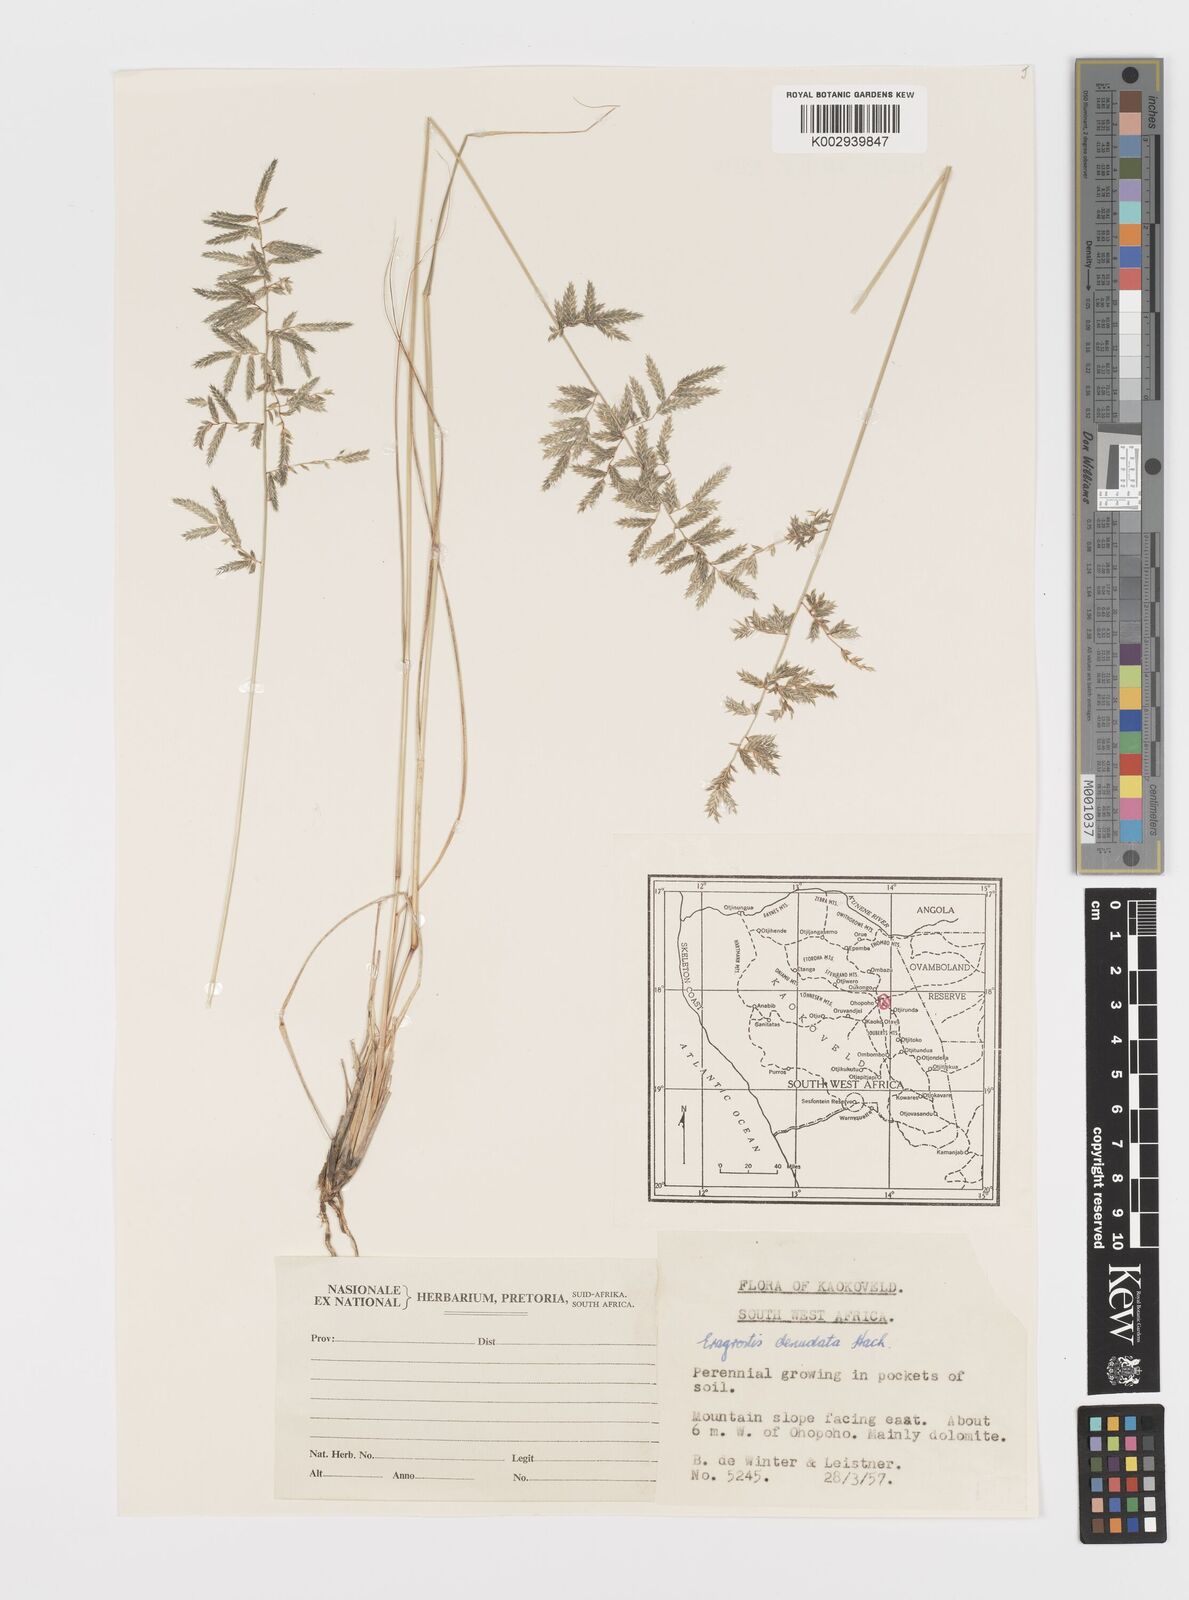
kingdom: Plantae
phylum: Tracheophyta
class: Liliopsida
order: Poales
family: Poaceae
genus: Eragrostis
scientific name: Eragrostis nindensis
